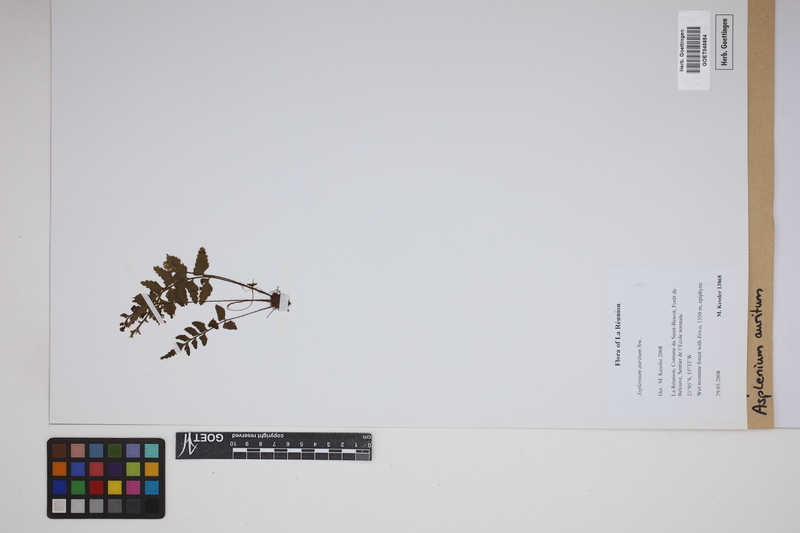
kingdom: Plantae
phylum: Tracheophyta
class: Polypodiopsida
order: Polypodiales
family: Aspleniaceae
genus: Asplenium
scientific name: Asplenium auritum
